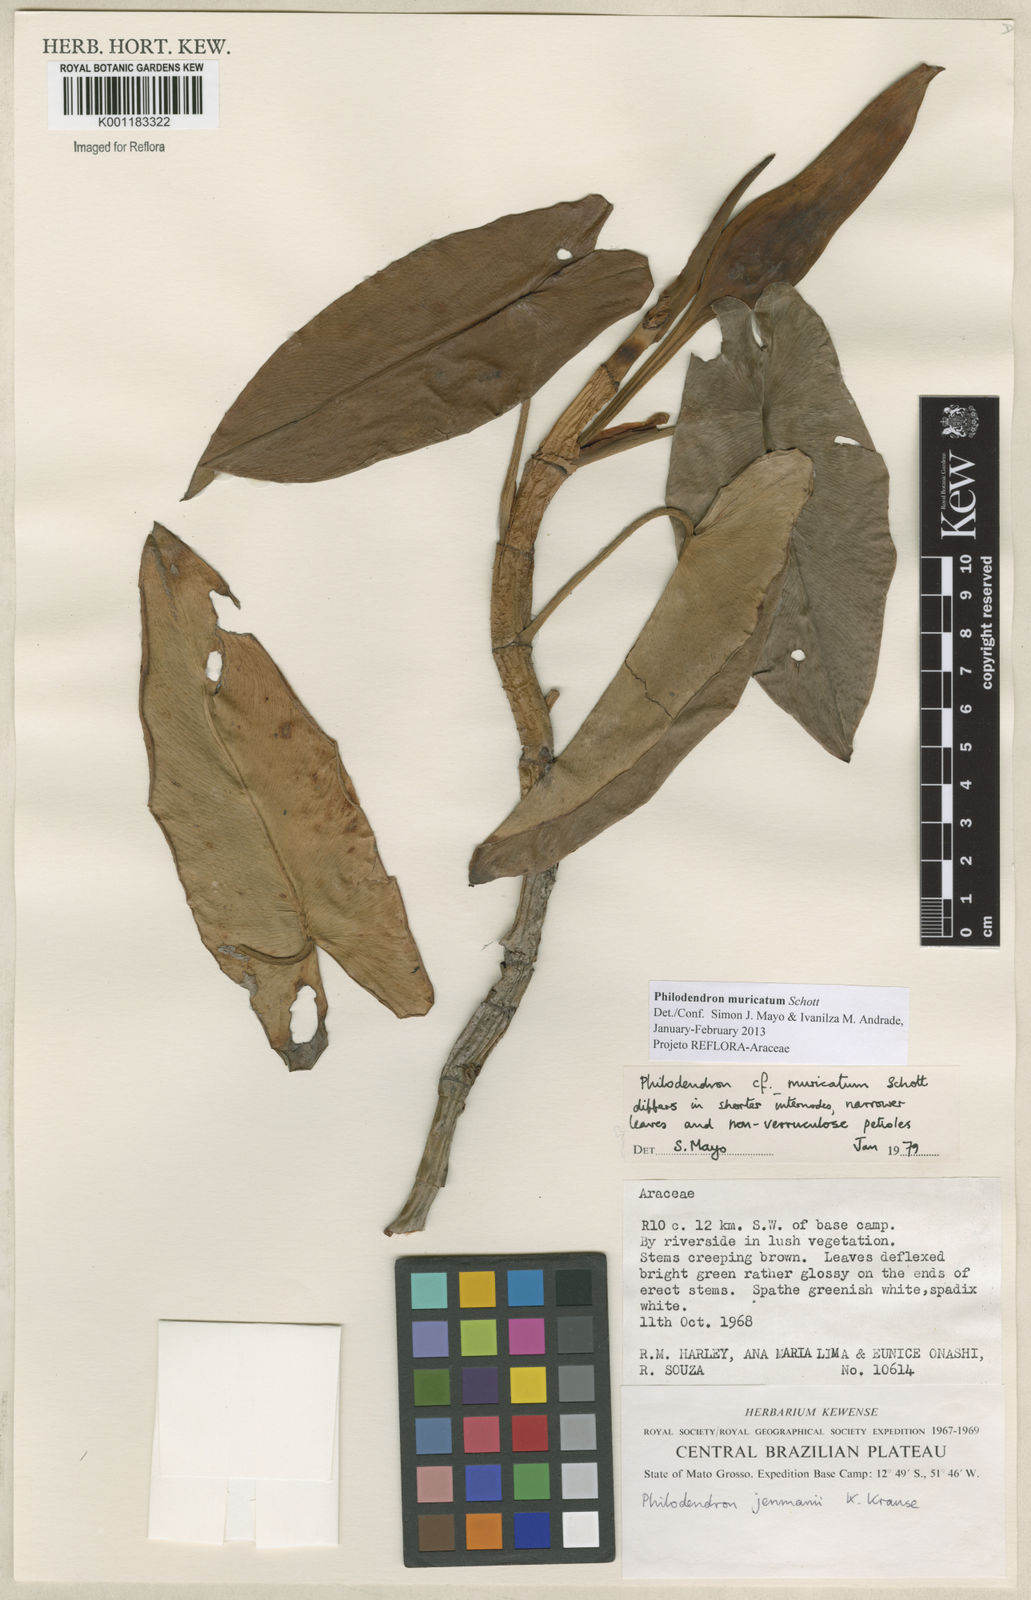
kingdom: Plantae
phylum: Tracheophyta
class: Liliopsida
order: Alismatales
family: Araceae
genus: Philodendron
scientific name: Philodendron muricatum
